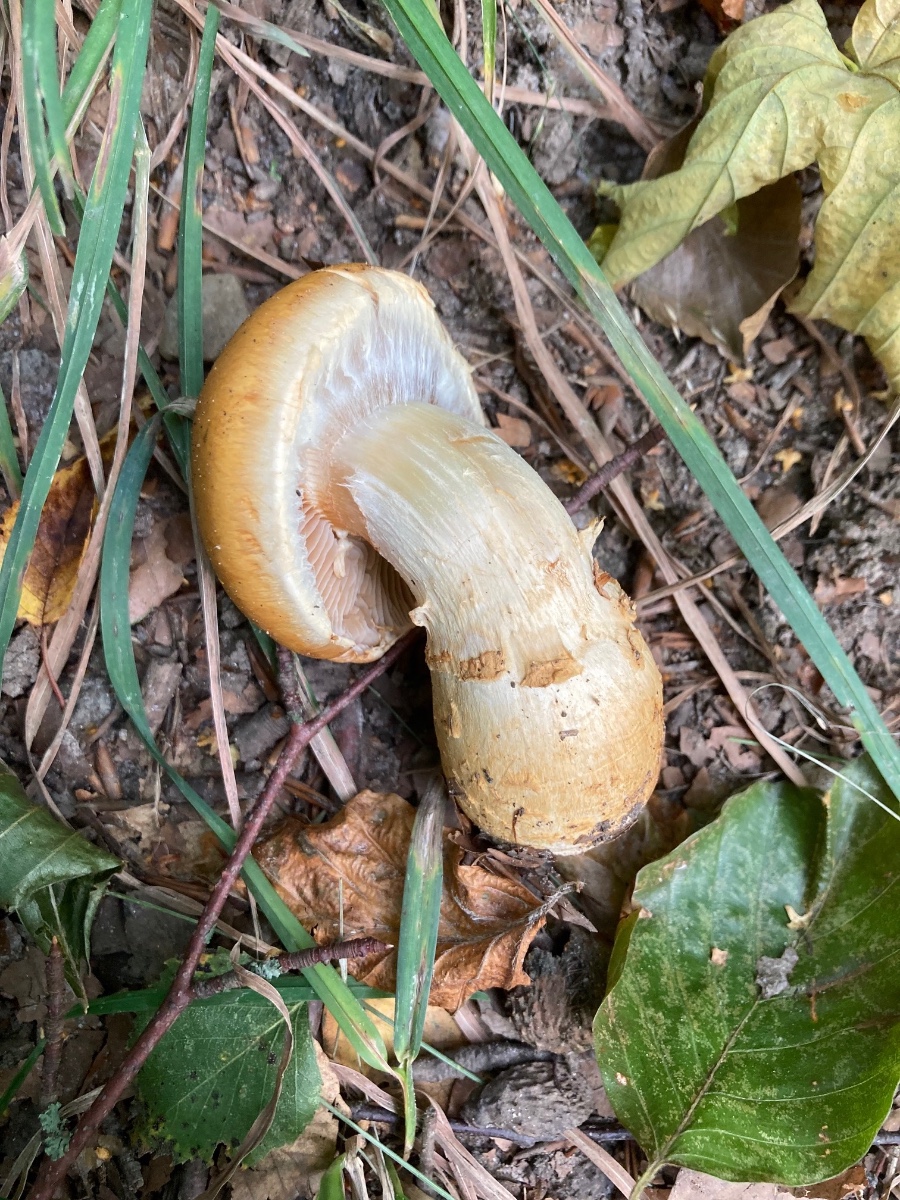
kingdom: Fungi
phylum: Basidiomycota
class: Agaricomycetes
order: Agaricales
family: Cortinariaceae
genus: Phlegmacium
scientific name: Phlegmacium triumphans
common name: gulbæltet slørhat
